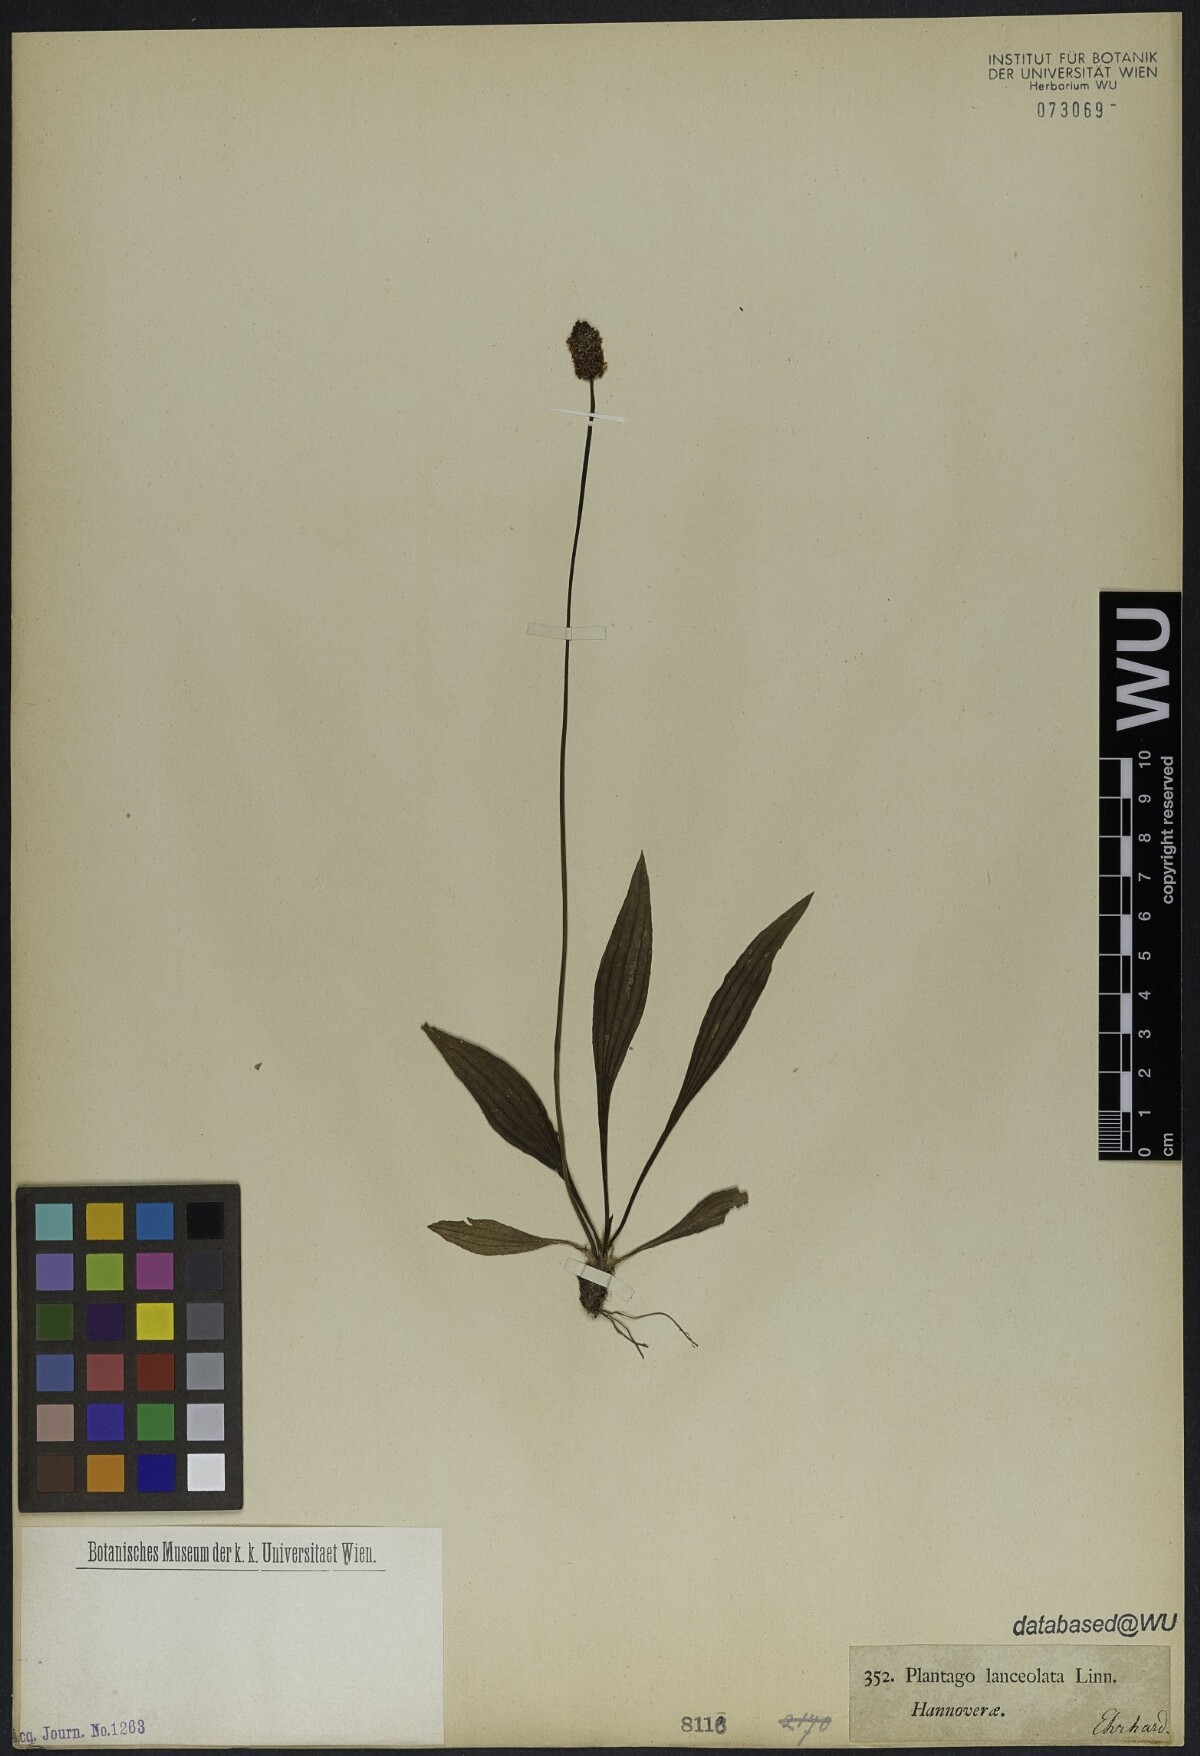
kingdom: Plantae
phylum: Tracheophyta
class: Magnoliopsida
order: Lamiales
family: Plantaginaceae
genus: Plantago
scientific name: Plantago lanceolata
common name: Ribwort plantain
